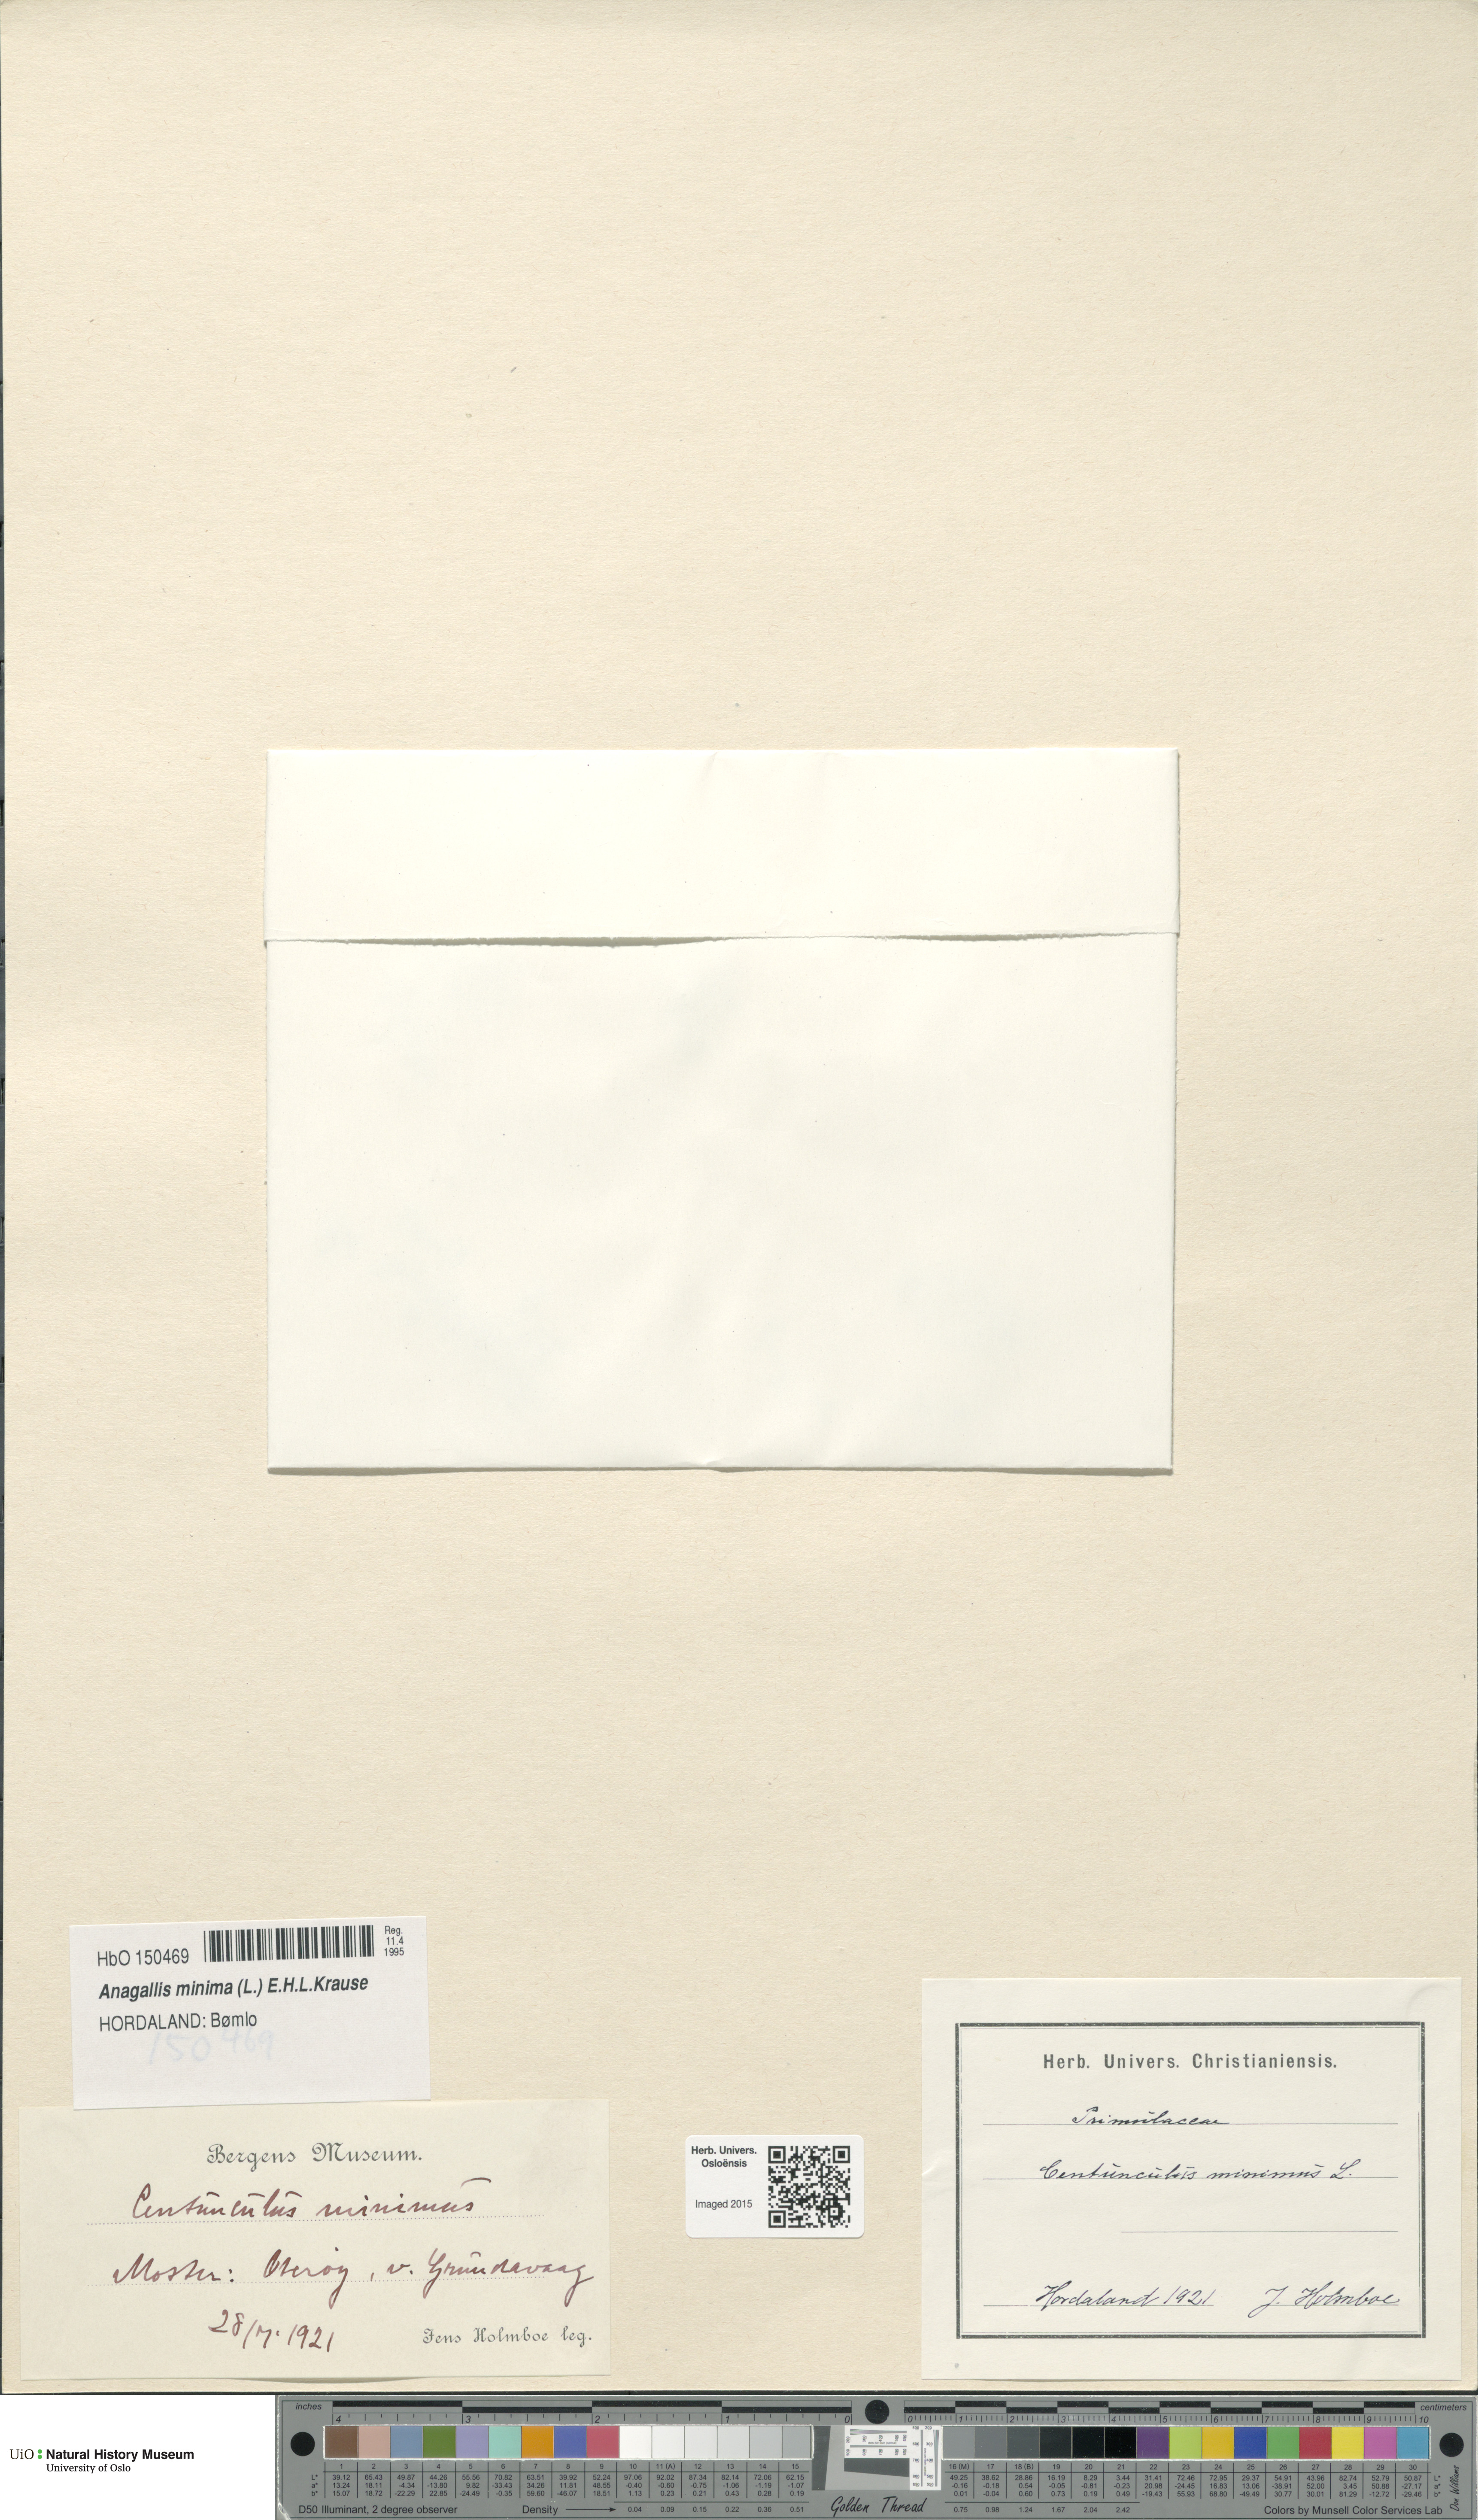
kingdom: Plantae
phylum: Tracheophyta
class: Magnoliopsida
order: Ericales
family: Primulaceae
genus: Lysimachia
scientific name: Lysimachia minima
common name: Chaffweed
